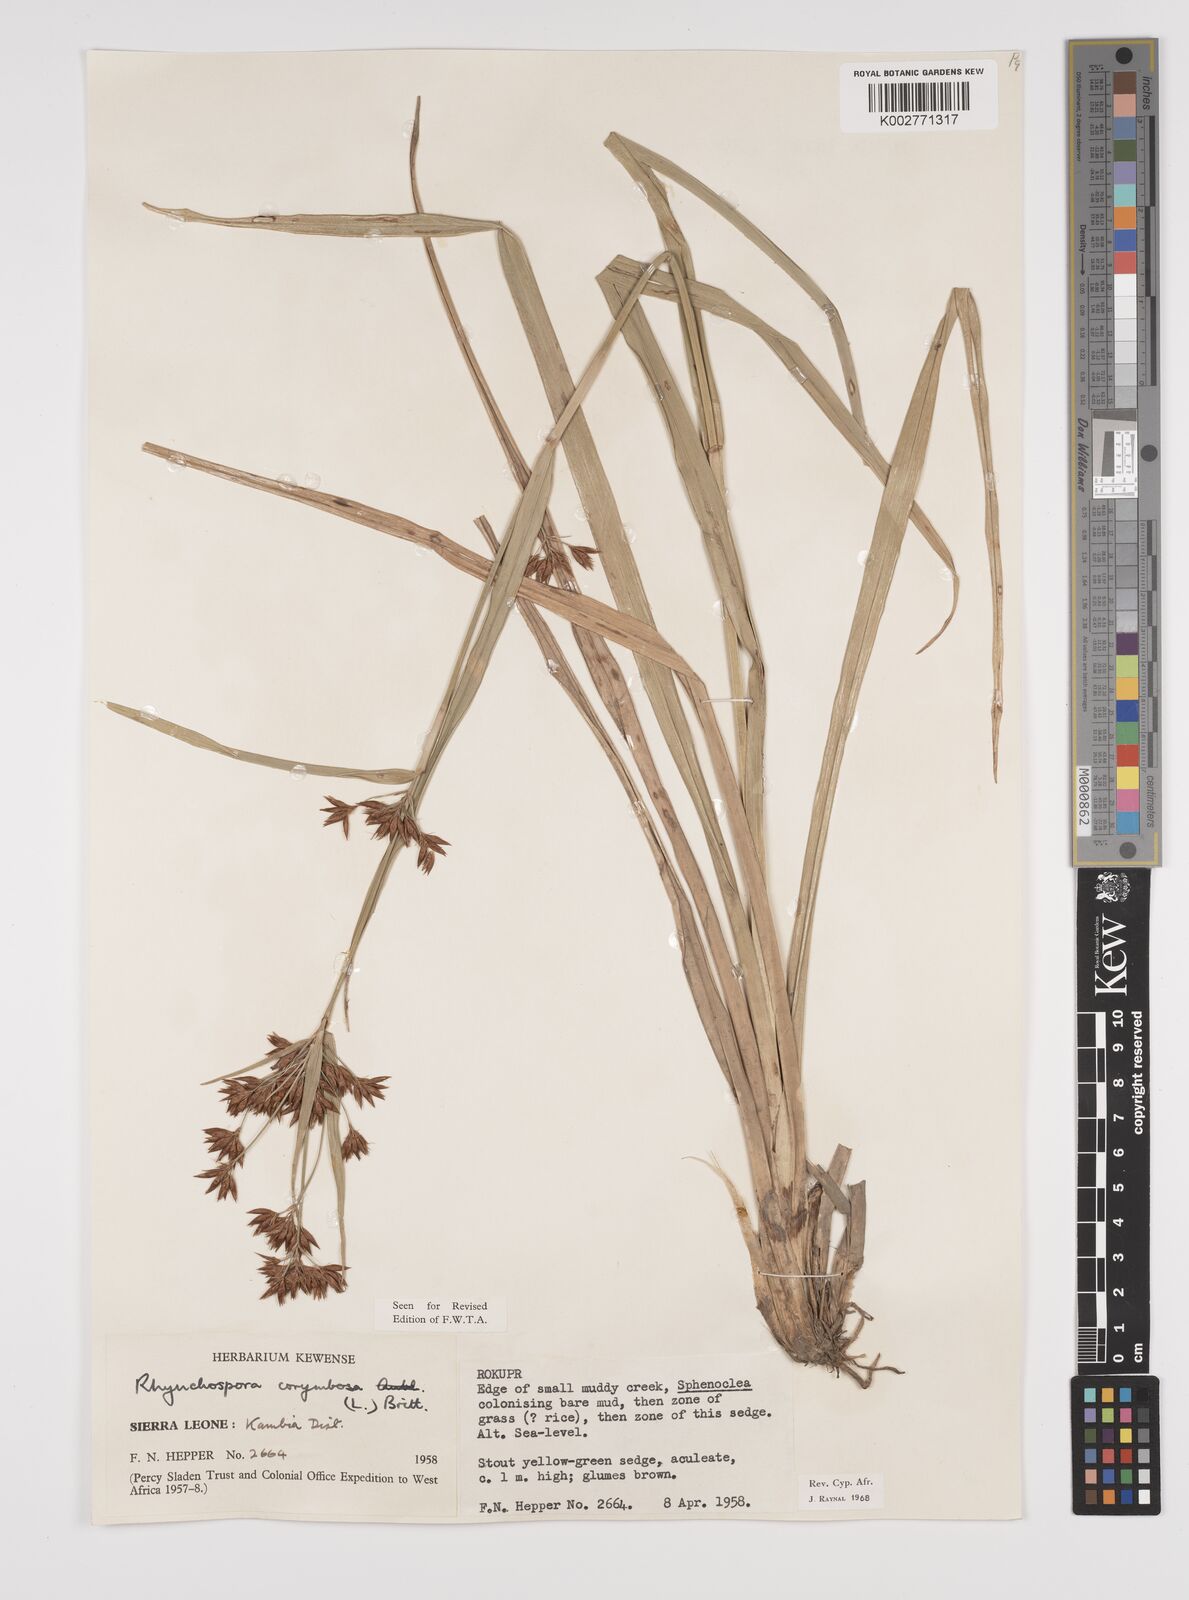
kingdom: Plantae
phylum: Tracheophyta
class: Liliopsida
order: Poales
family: Cyperaceae
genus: Rhynchospora
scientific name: Rhynchospora corymbosa
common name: Golden beak sedge
